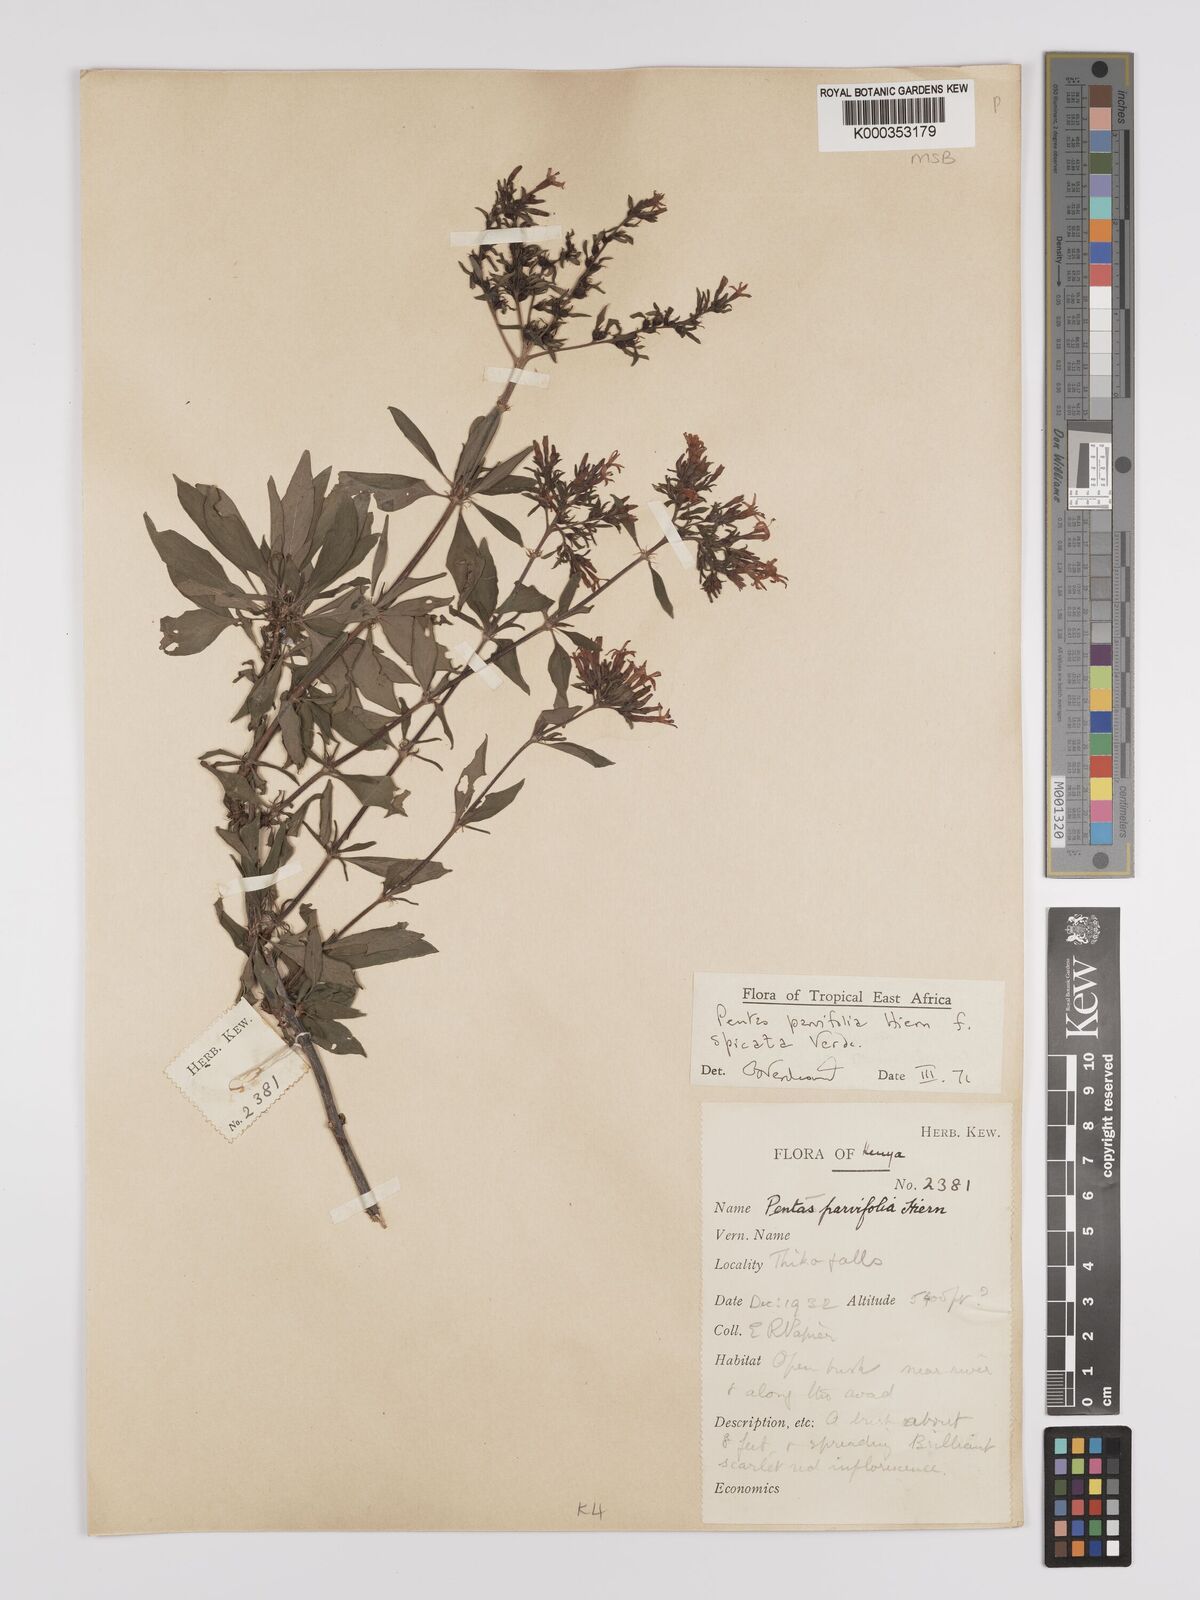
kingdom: Plantae
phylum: Tracheophyta
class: Magnoliopsida
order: Gentianales
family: Rubiaceae
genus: Rhodopentas
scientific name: Rhodopentas parvifolia
